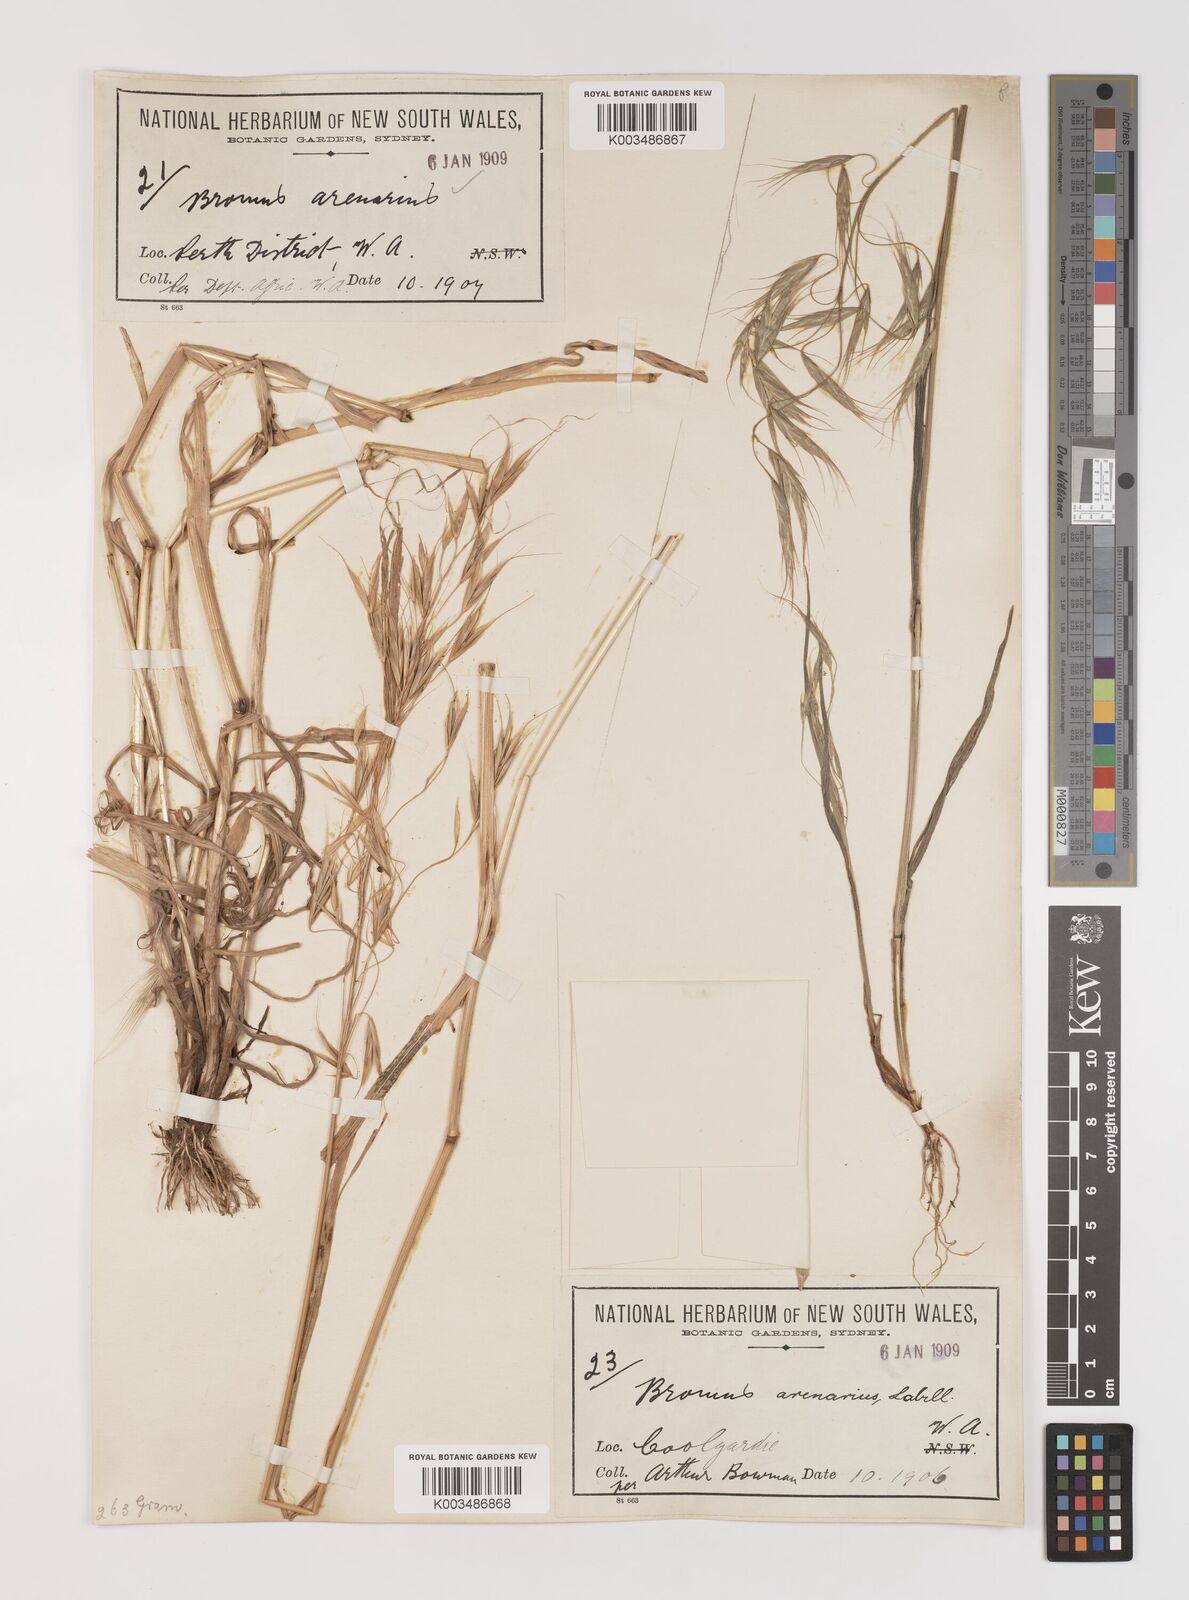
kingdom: Plantae
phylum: Tracheophyta
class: Liliopsida
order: Poales
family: Poaceae
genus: Bromus
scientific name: Bromus arenarius
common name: Australian brome
